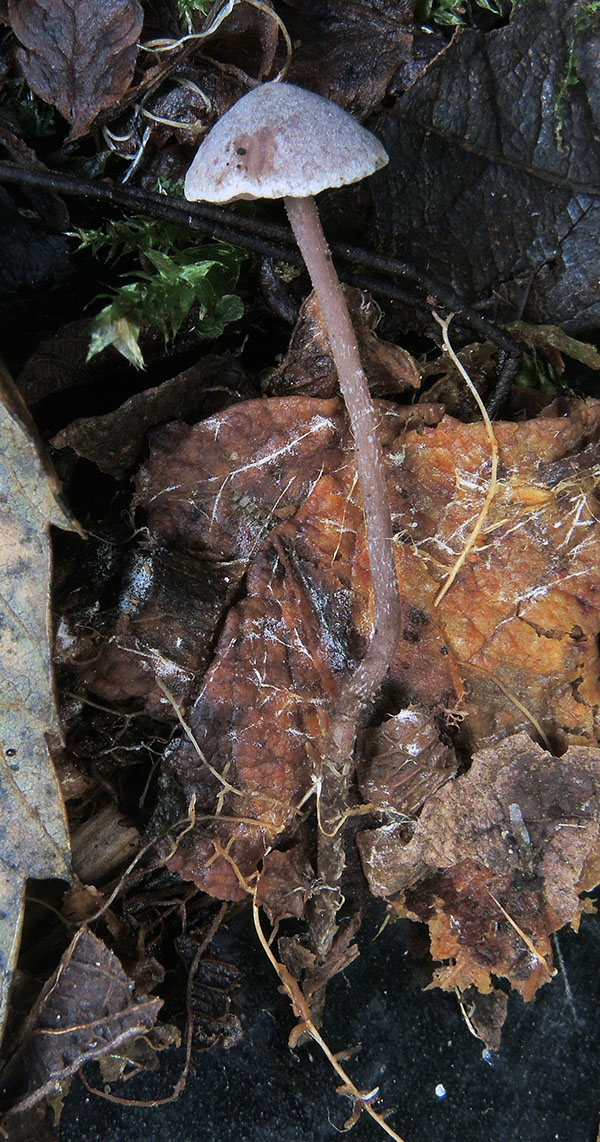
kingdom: Fungi
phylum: Basidiomycota
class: Agaricomycetes
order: Agaricales
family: Tricholomataceae
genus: Pseudobaeospora
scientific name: Pseudobaeospora pillodii
